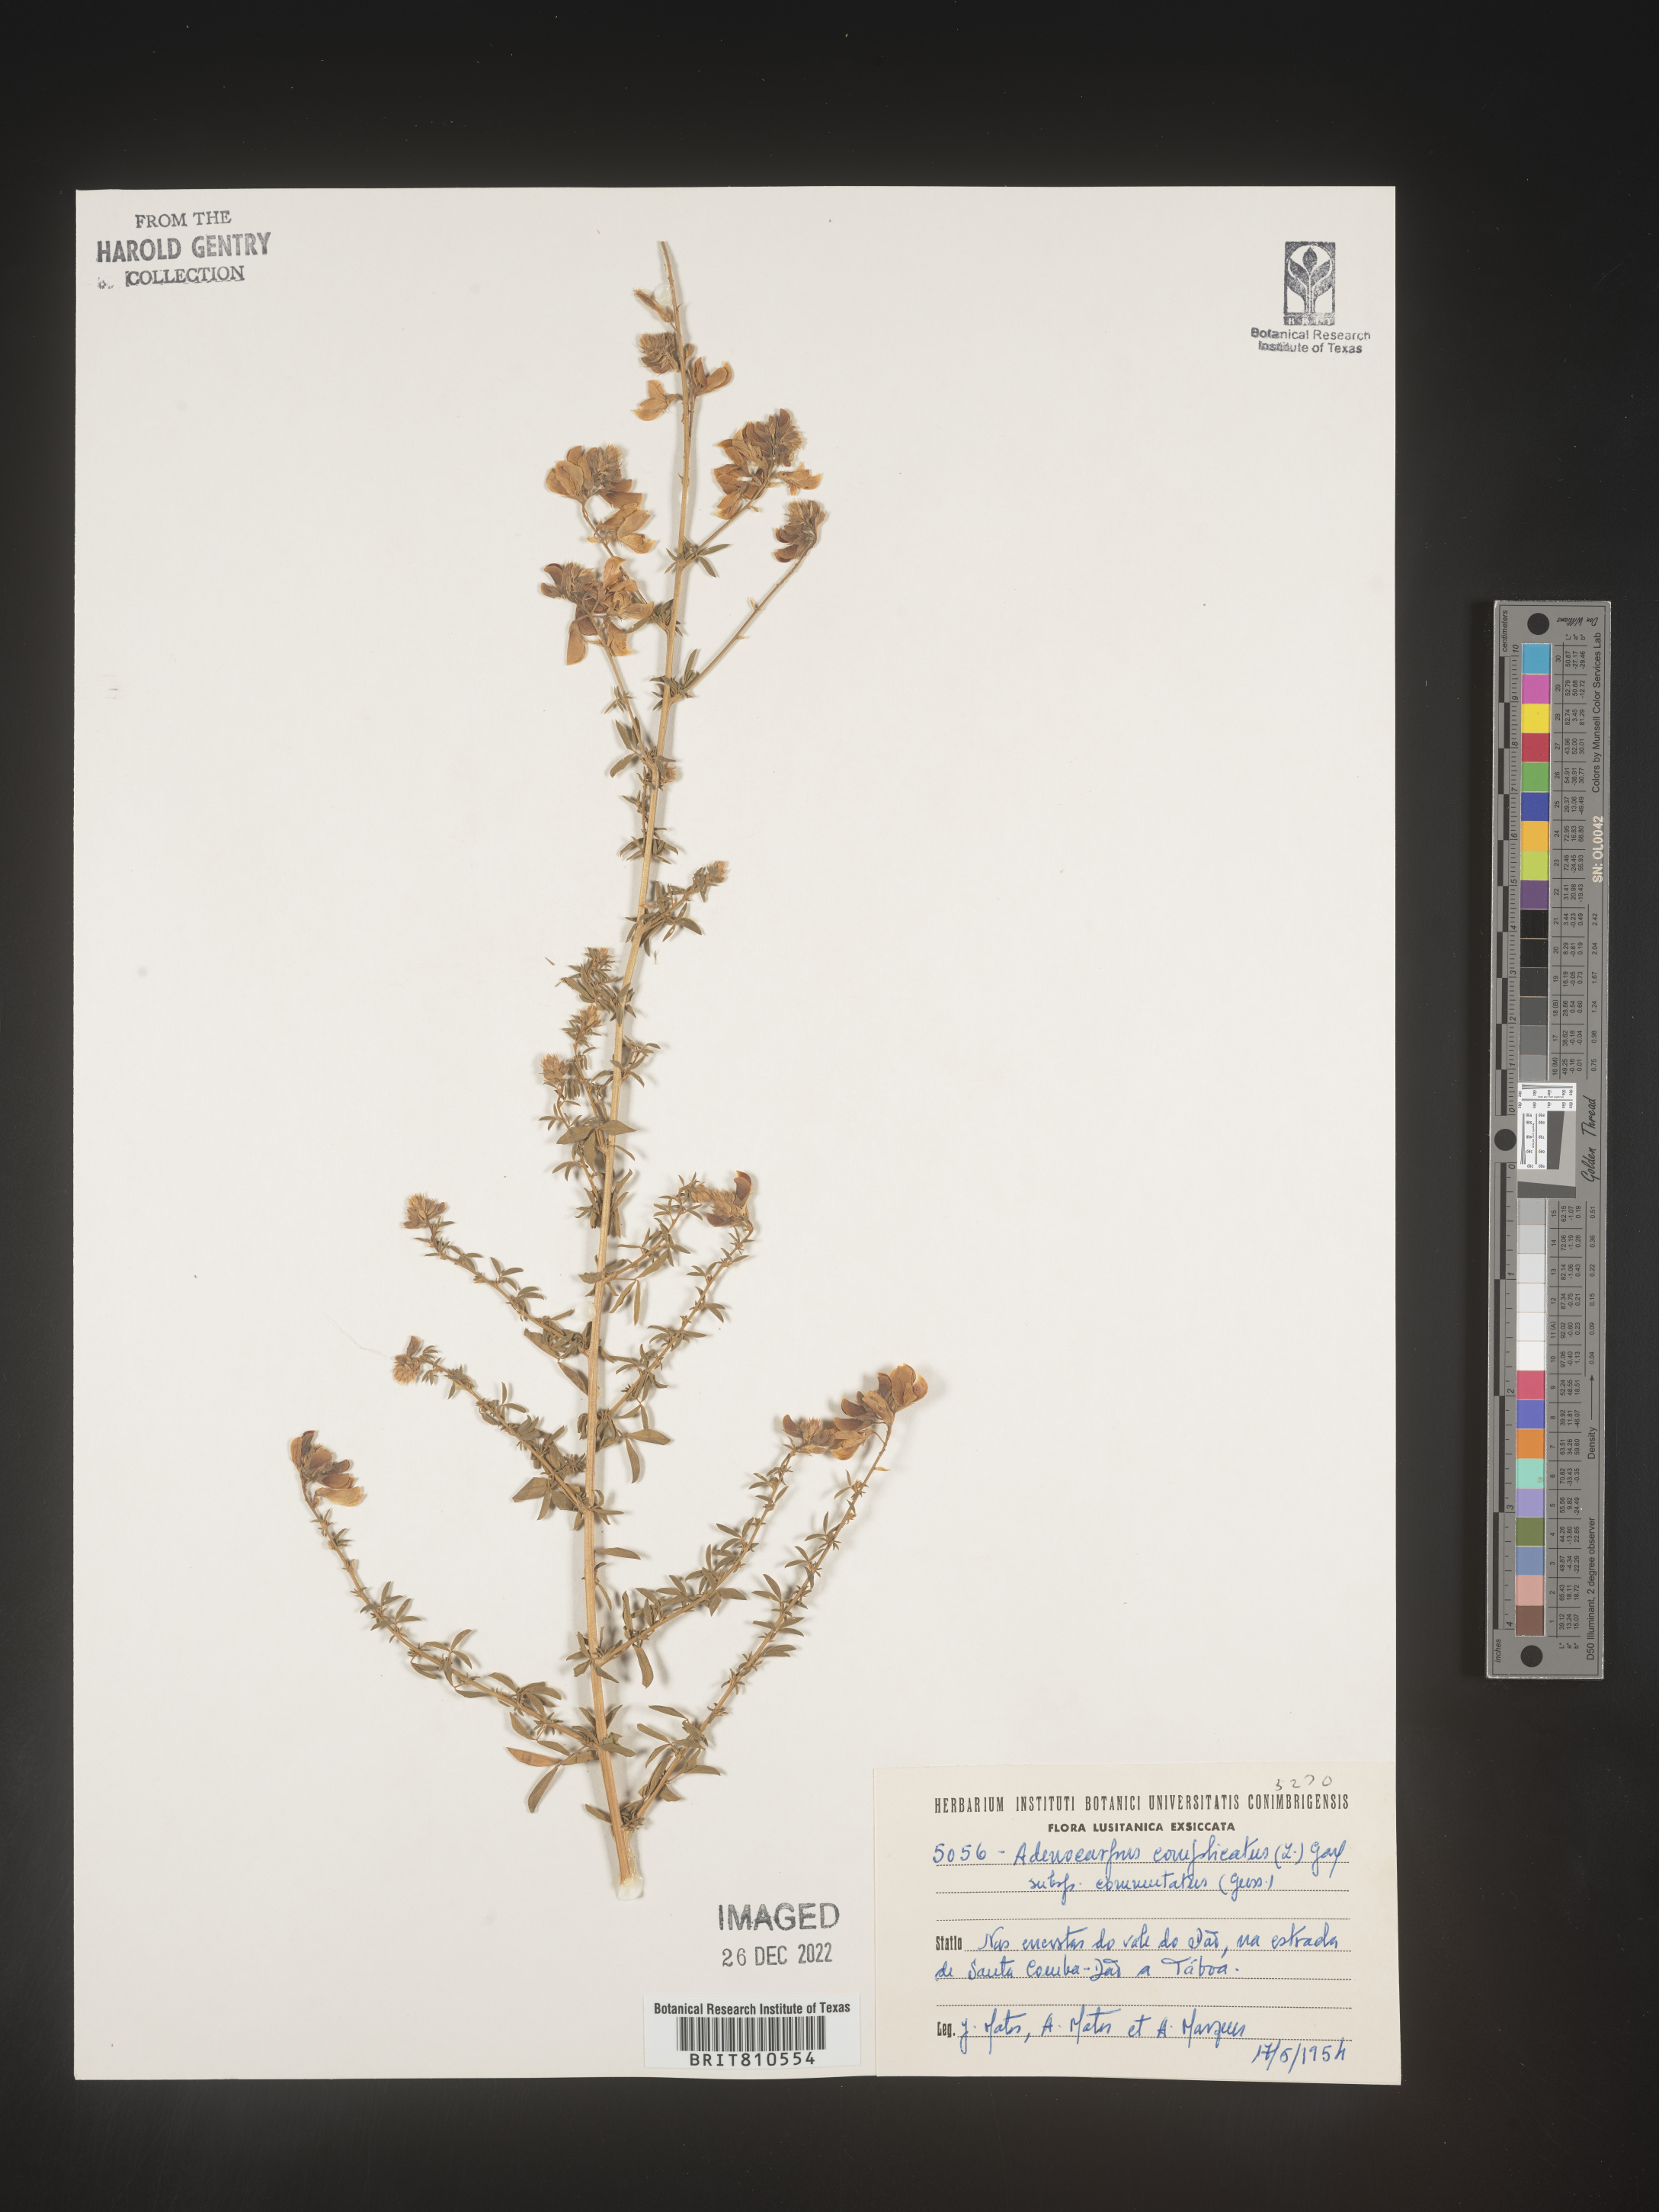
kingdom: Plantae
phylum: Tracheophyta
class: Magnoliopsida
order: Fabales
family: Fabaceae
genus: Adenocarpus
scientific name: Adenocarpus
